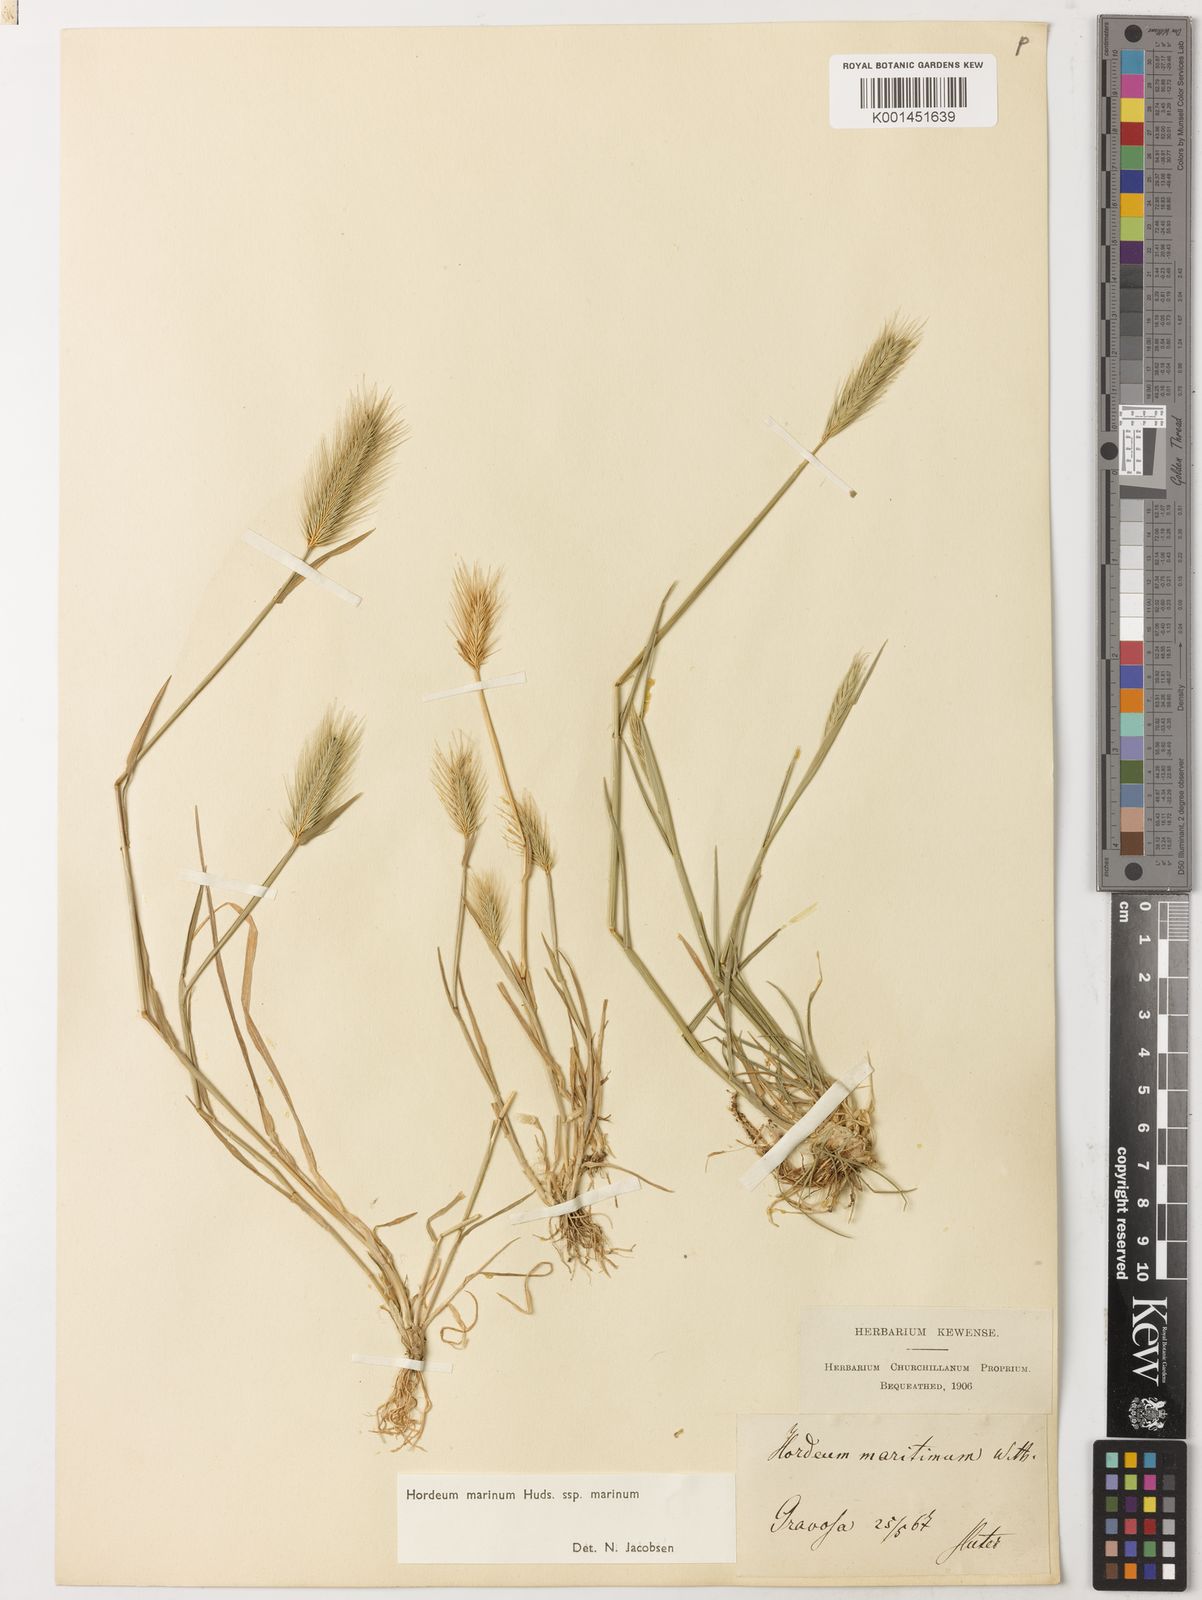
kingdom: Plantae
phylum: Tracheophyta
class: Liliopsida
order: Poales
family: Poaceae
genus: Hordeum
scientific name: Hordeum marinum
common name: Sea barley
